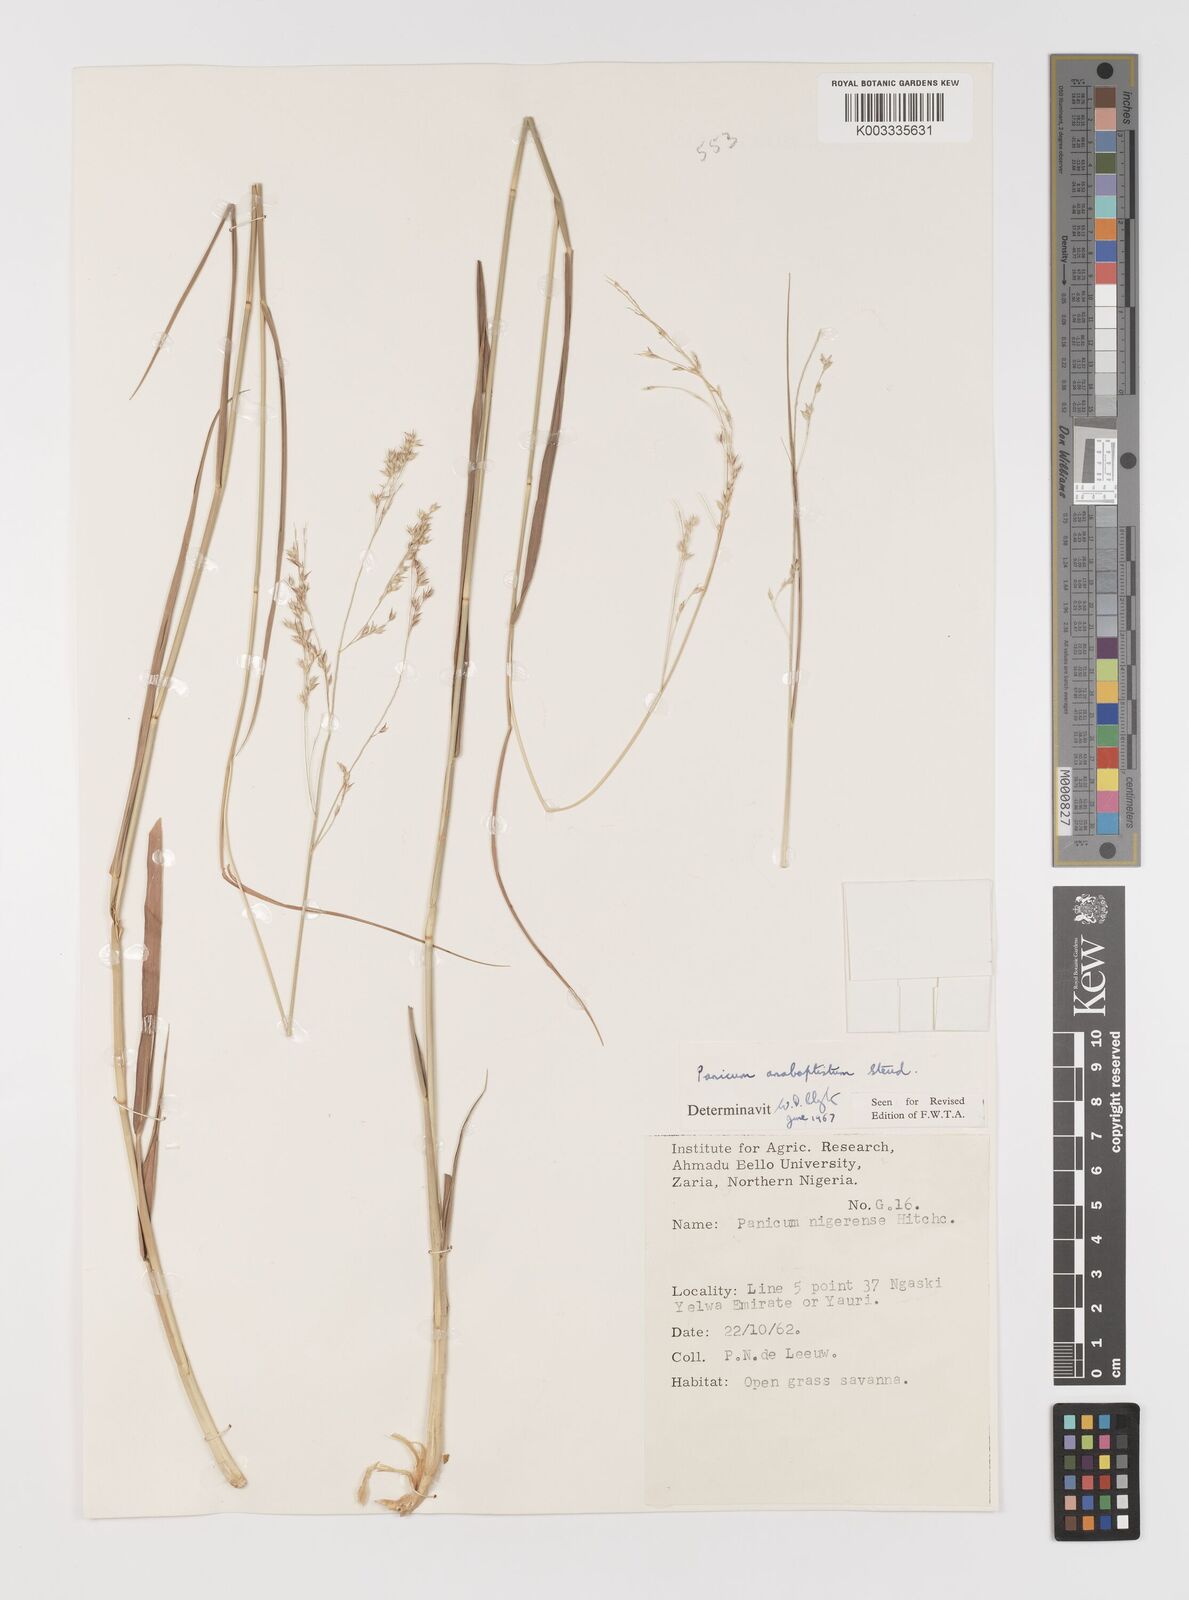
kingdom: Plantae
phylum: Tracheophyta
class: Liliopsida
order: Poales
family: Poaceae
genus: Panicum
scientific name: Panicum anabaptistum
